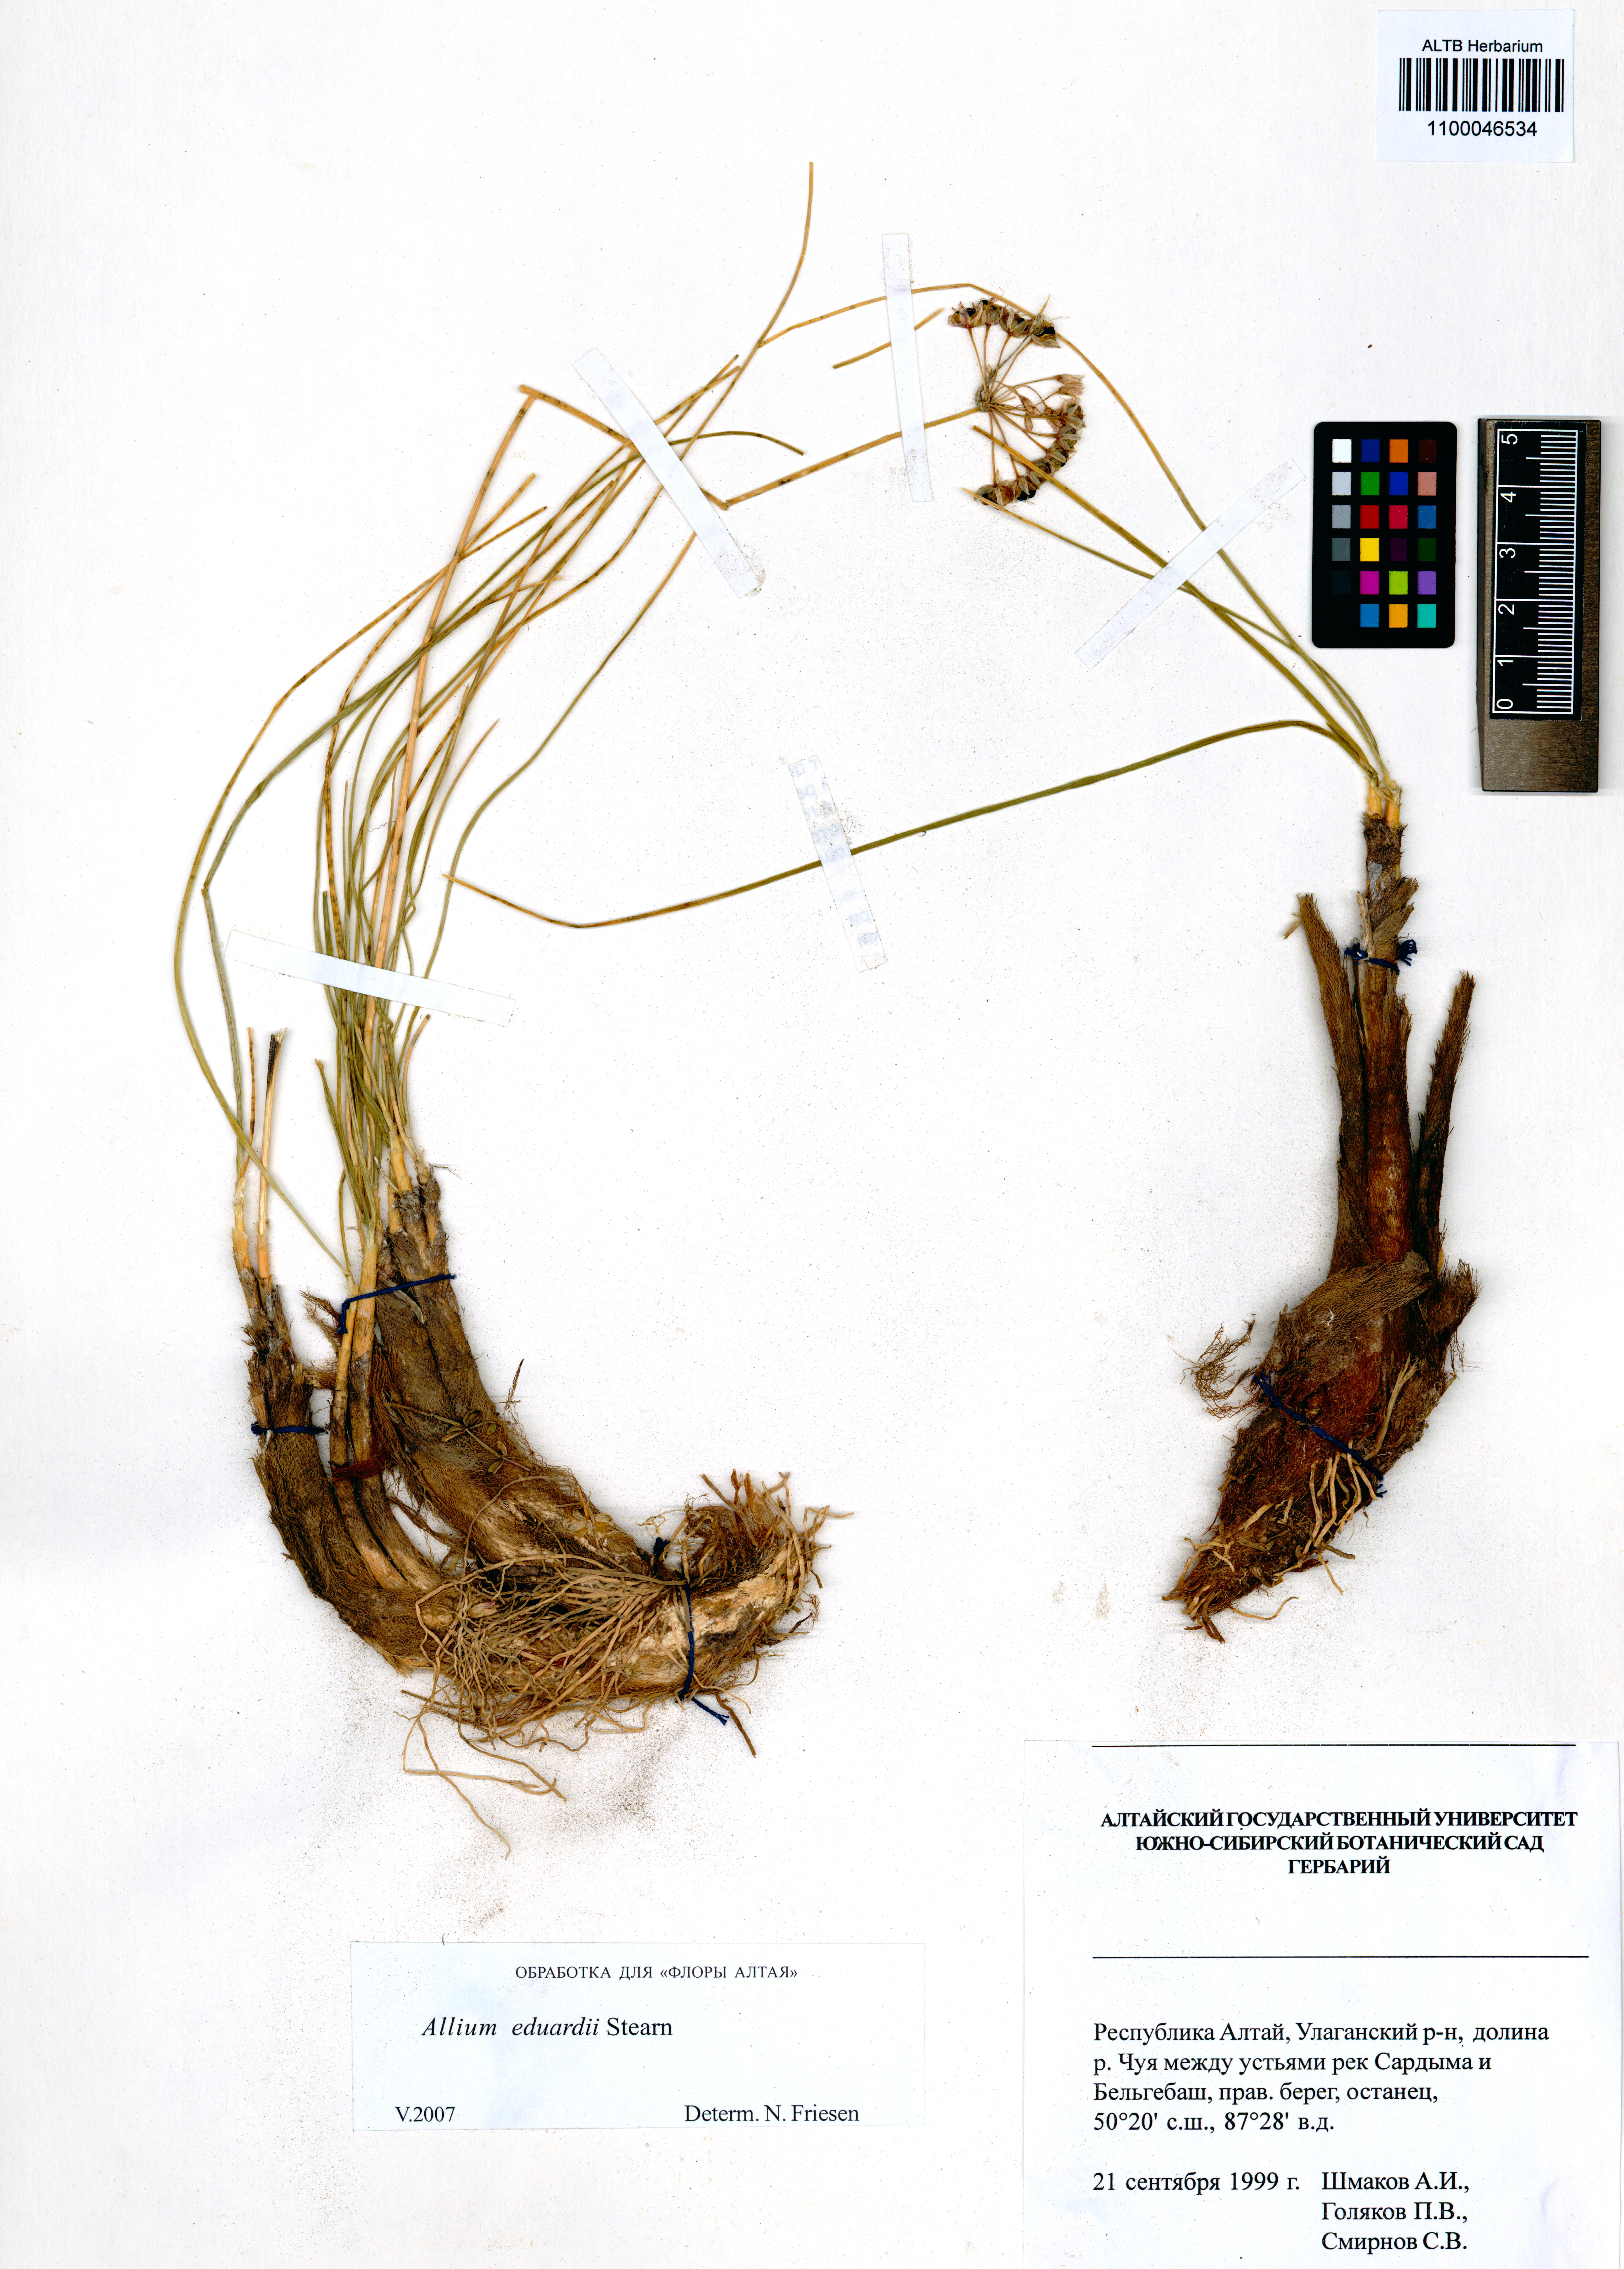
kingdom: Plantae
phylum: Tracheophyta
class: Liliopsida
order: Asparagales
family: Amaryllidaceae
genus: Allium
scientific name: Allium eduardi
